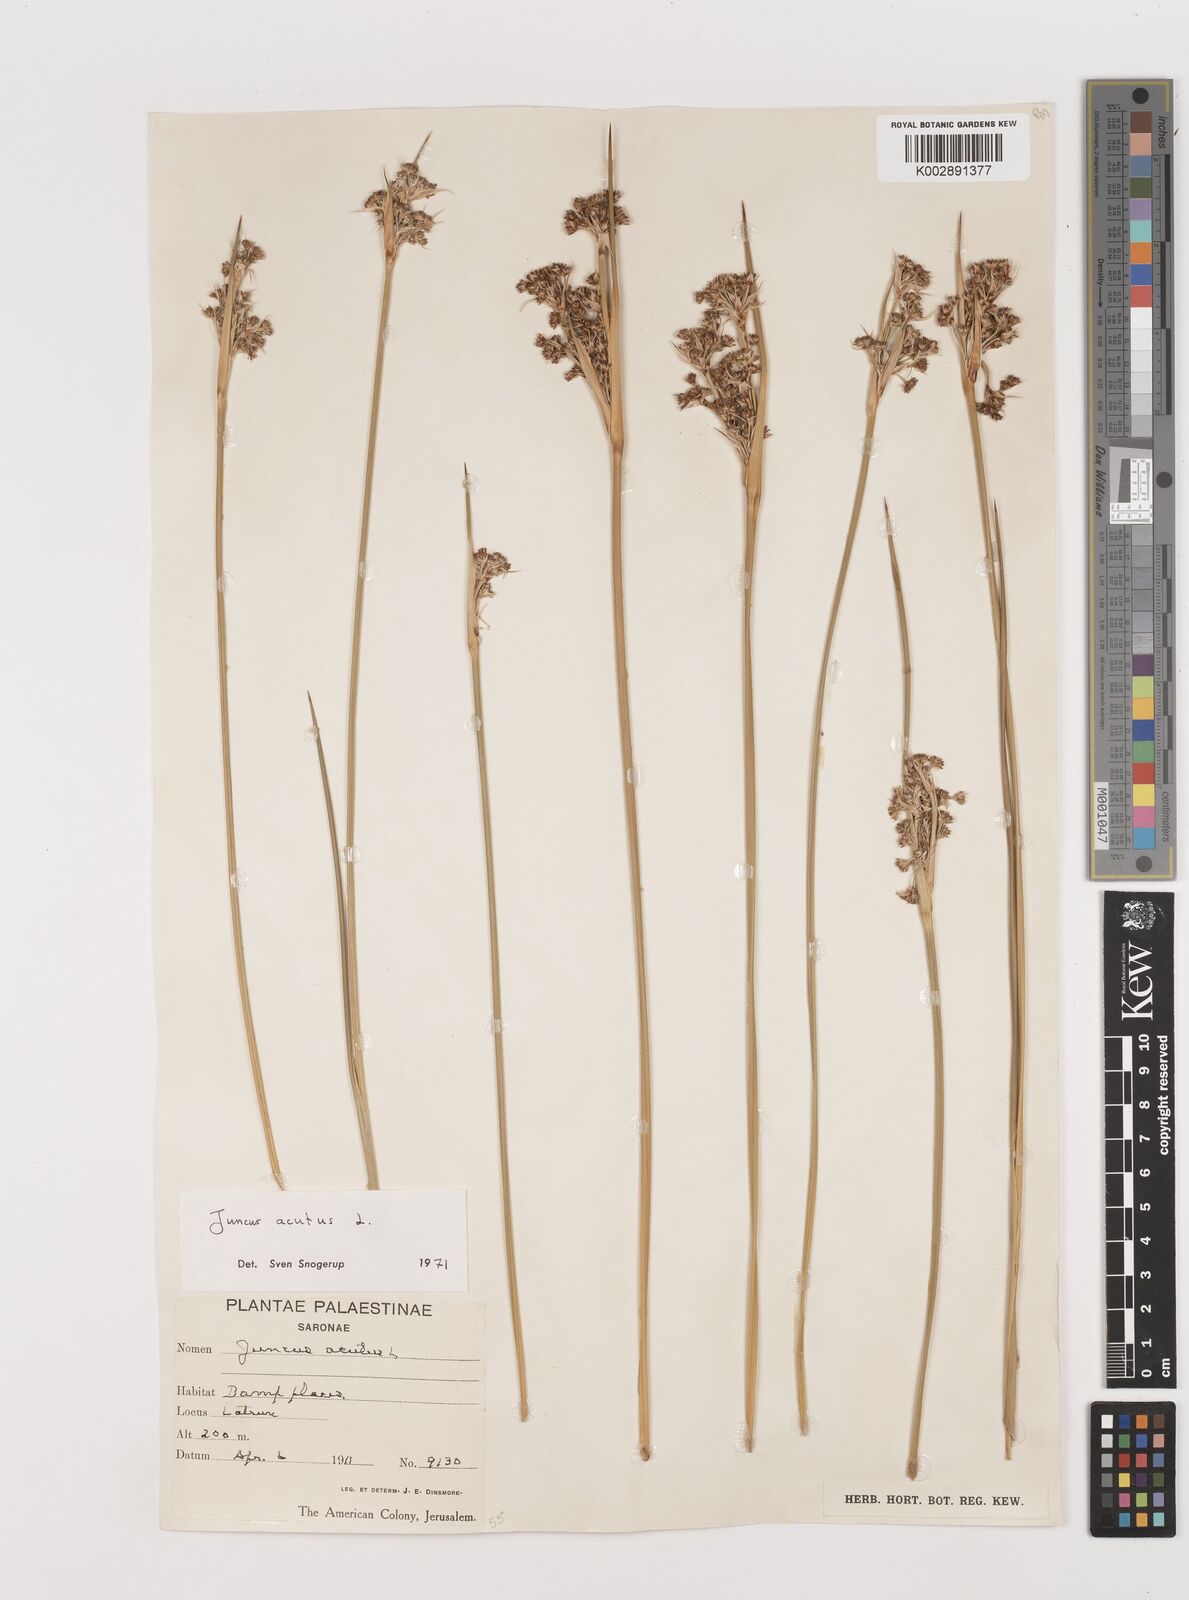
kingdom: Plantae
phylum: Tracheophyta
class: Liliopsida
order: Poales
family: Juncaceae
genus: Juncus
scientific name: Juncus acutus
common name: Sharp rush
